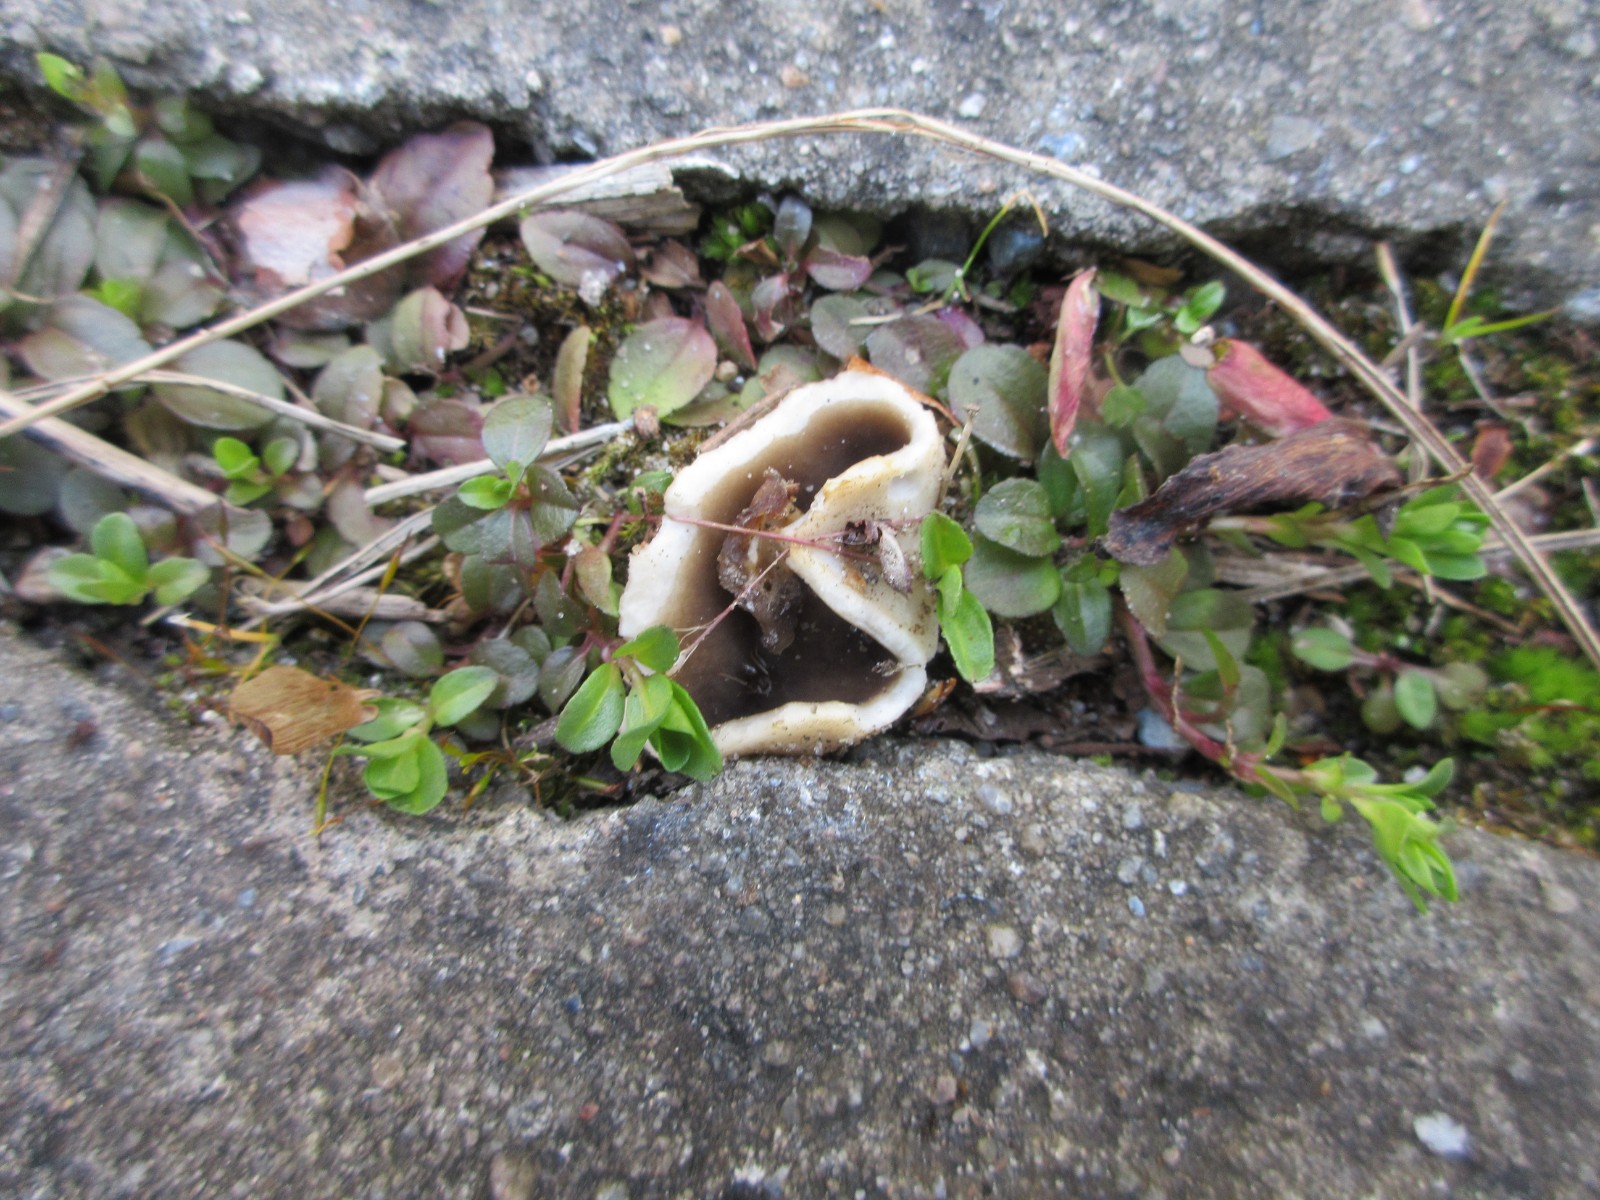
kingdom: Fungi
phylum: Ascomycota
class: Pezizomycetes
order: Pezizales
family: Helvellaceae
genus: Dissingia
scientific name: Dissingia leucomelaena
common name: sorthvid foldhat
